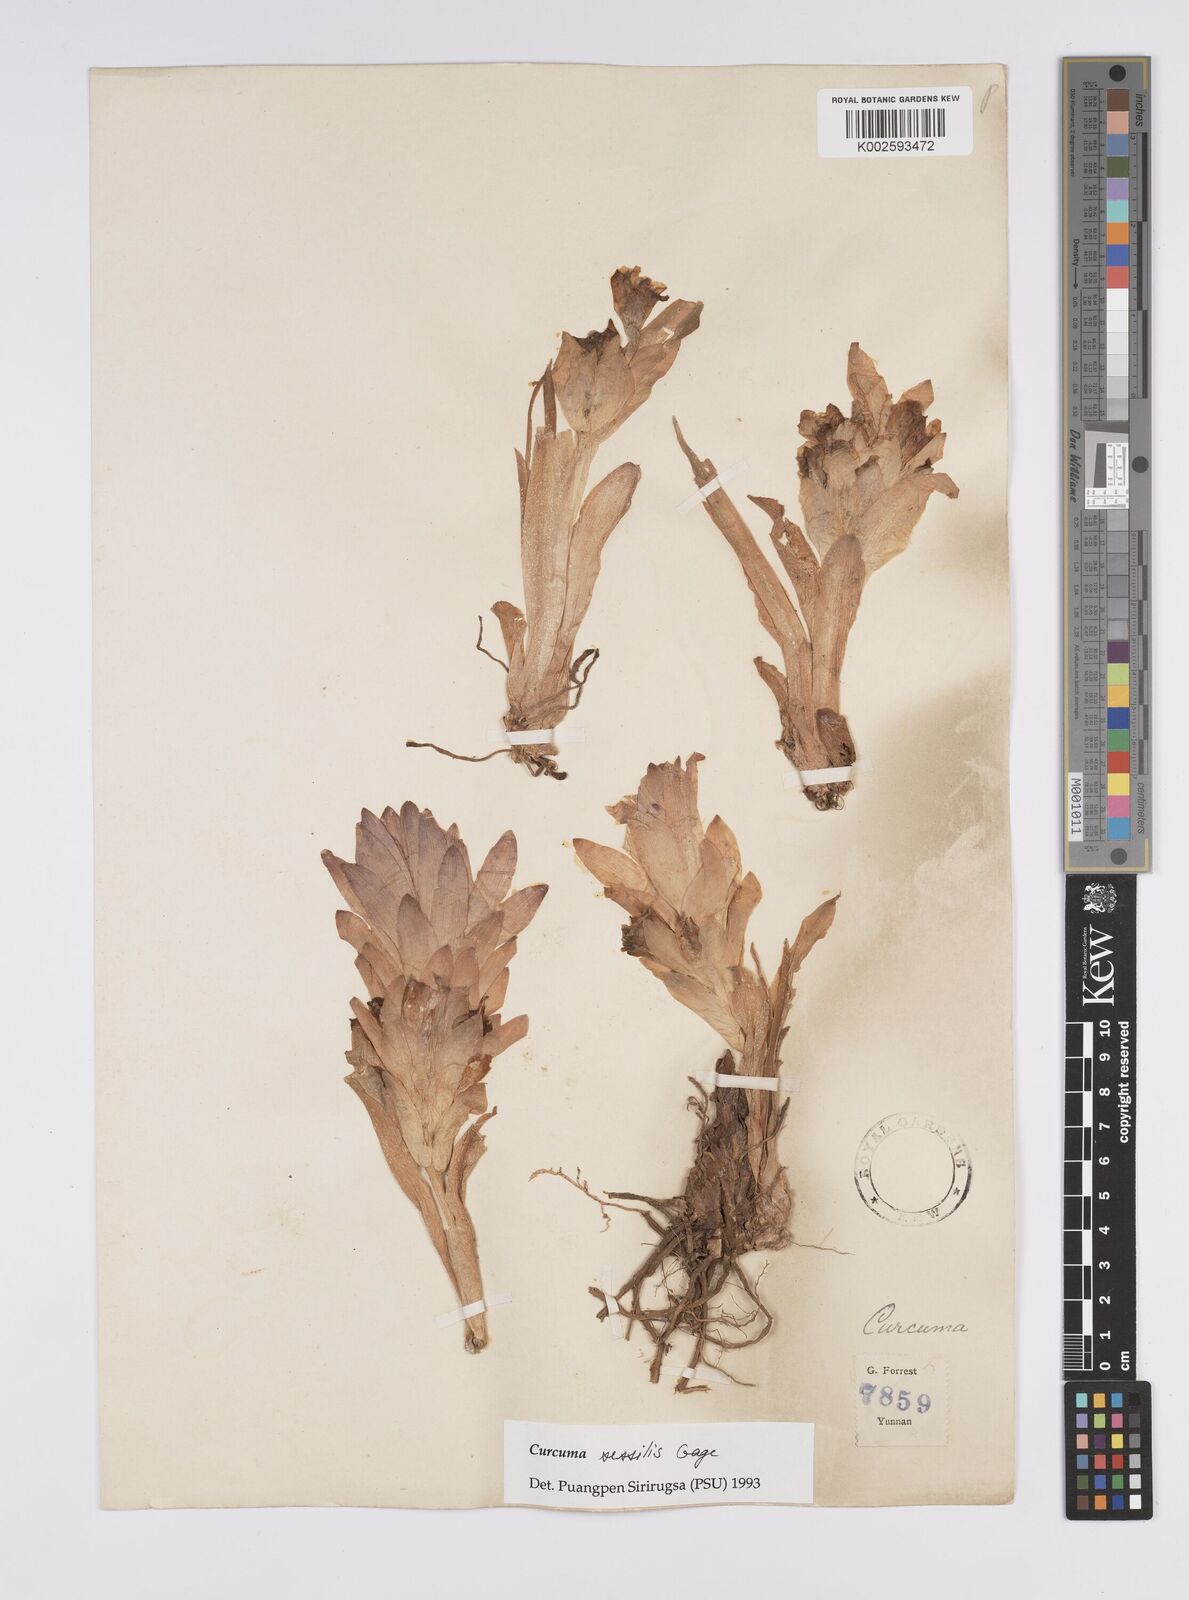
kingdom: Plantae
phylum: Tracheophyta
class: Liliopsida
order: Zingiberales
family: Zingiberaceae
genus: Curcuma
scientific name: Curcuma sessilis
